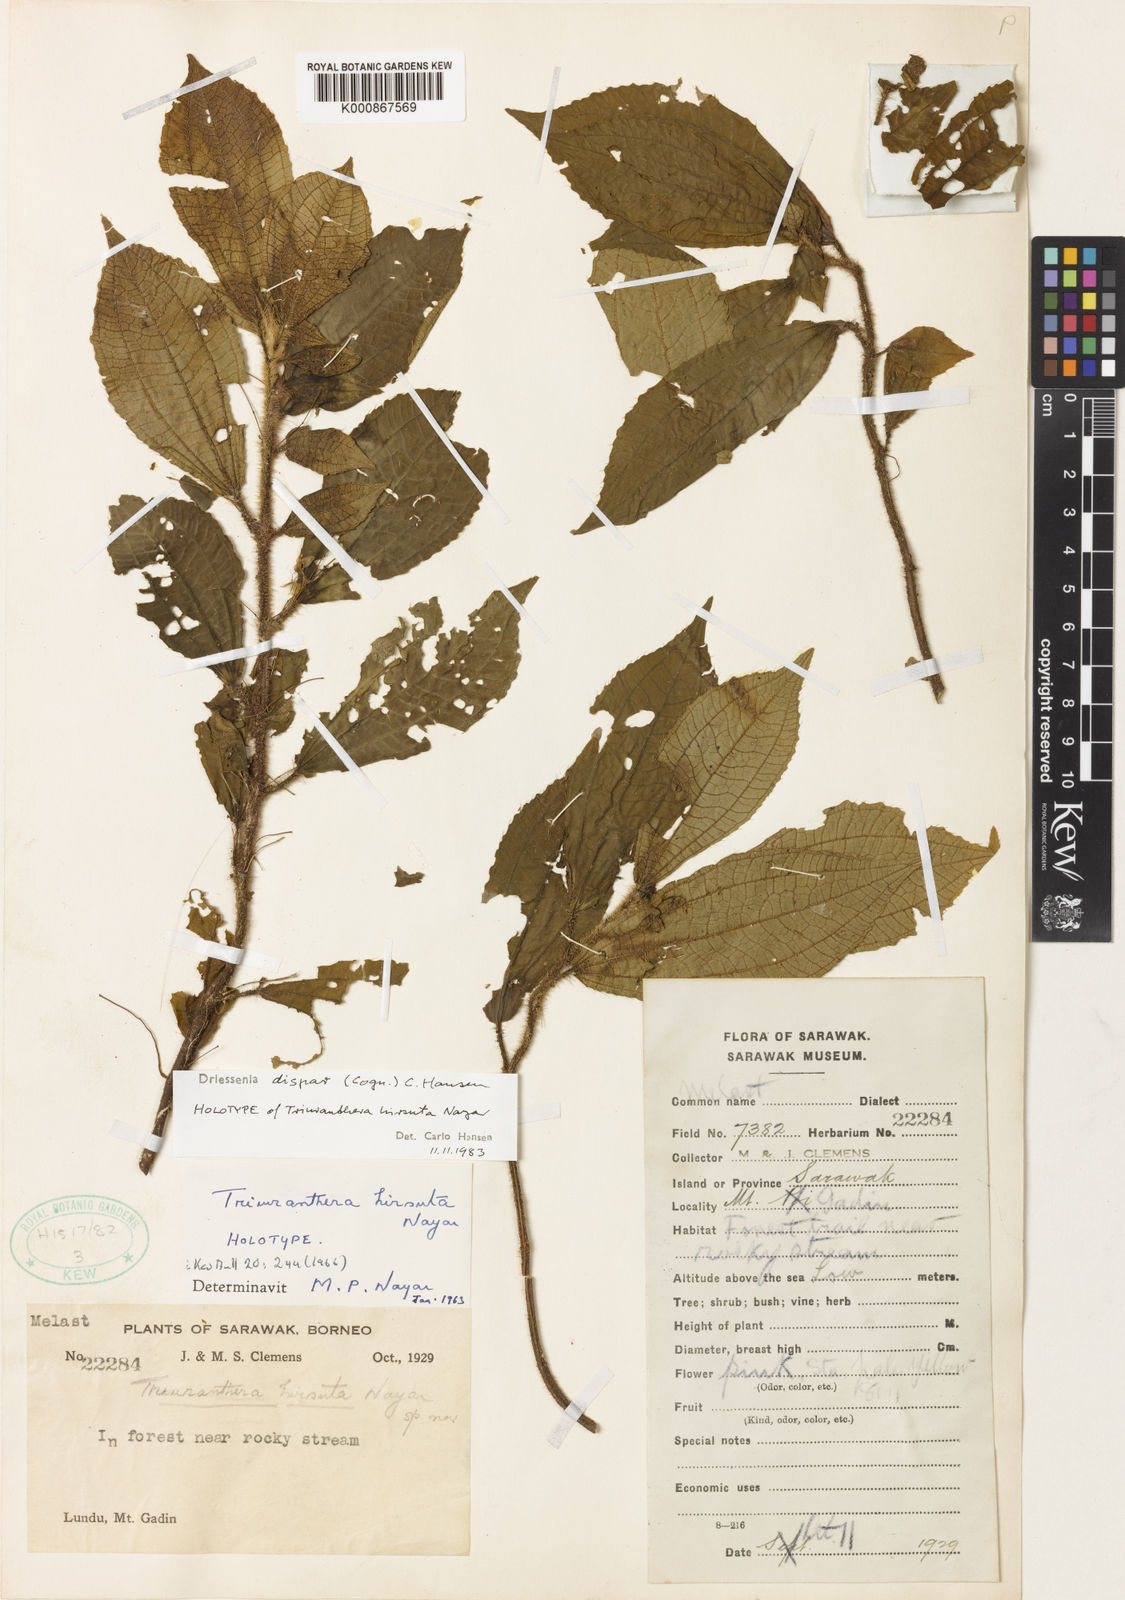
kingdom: Plantae
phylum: Tracheophyta
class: Magnoliopsida
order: Myrtales
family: Melastomataceae
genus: Driessenia
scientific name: Driessenia dispar
